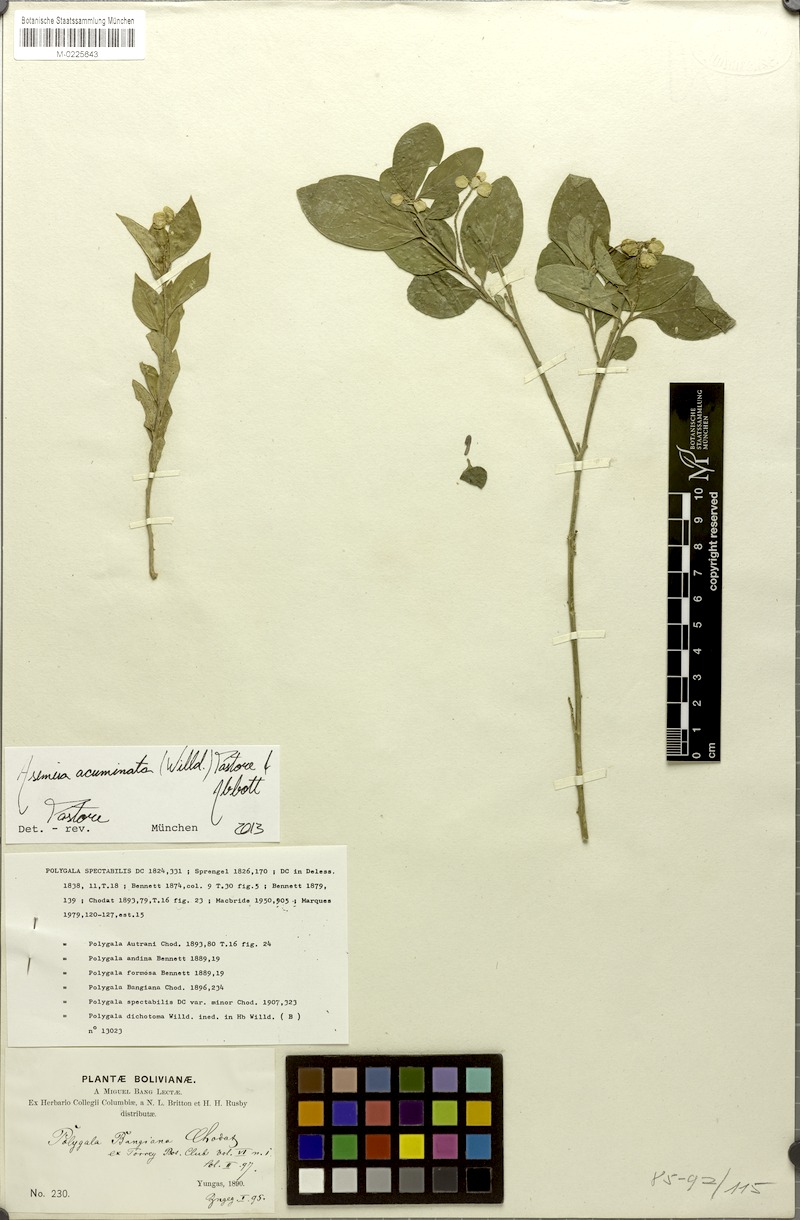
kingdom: Plantae
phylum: Tracheophyta
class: Magnoliopsida
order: Fabales
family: Polygalaceae
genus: Asemeia
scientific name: Asemeia acuminata
